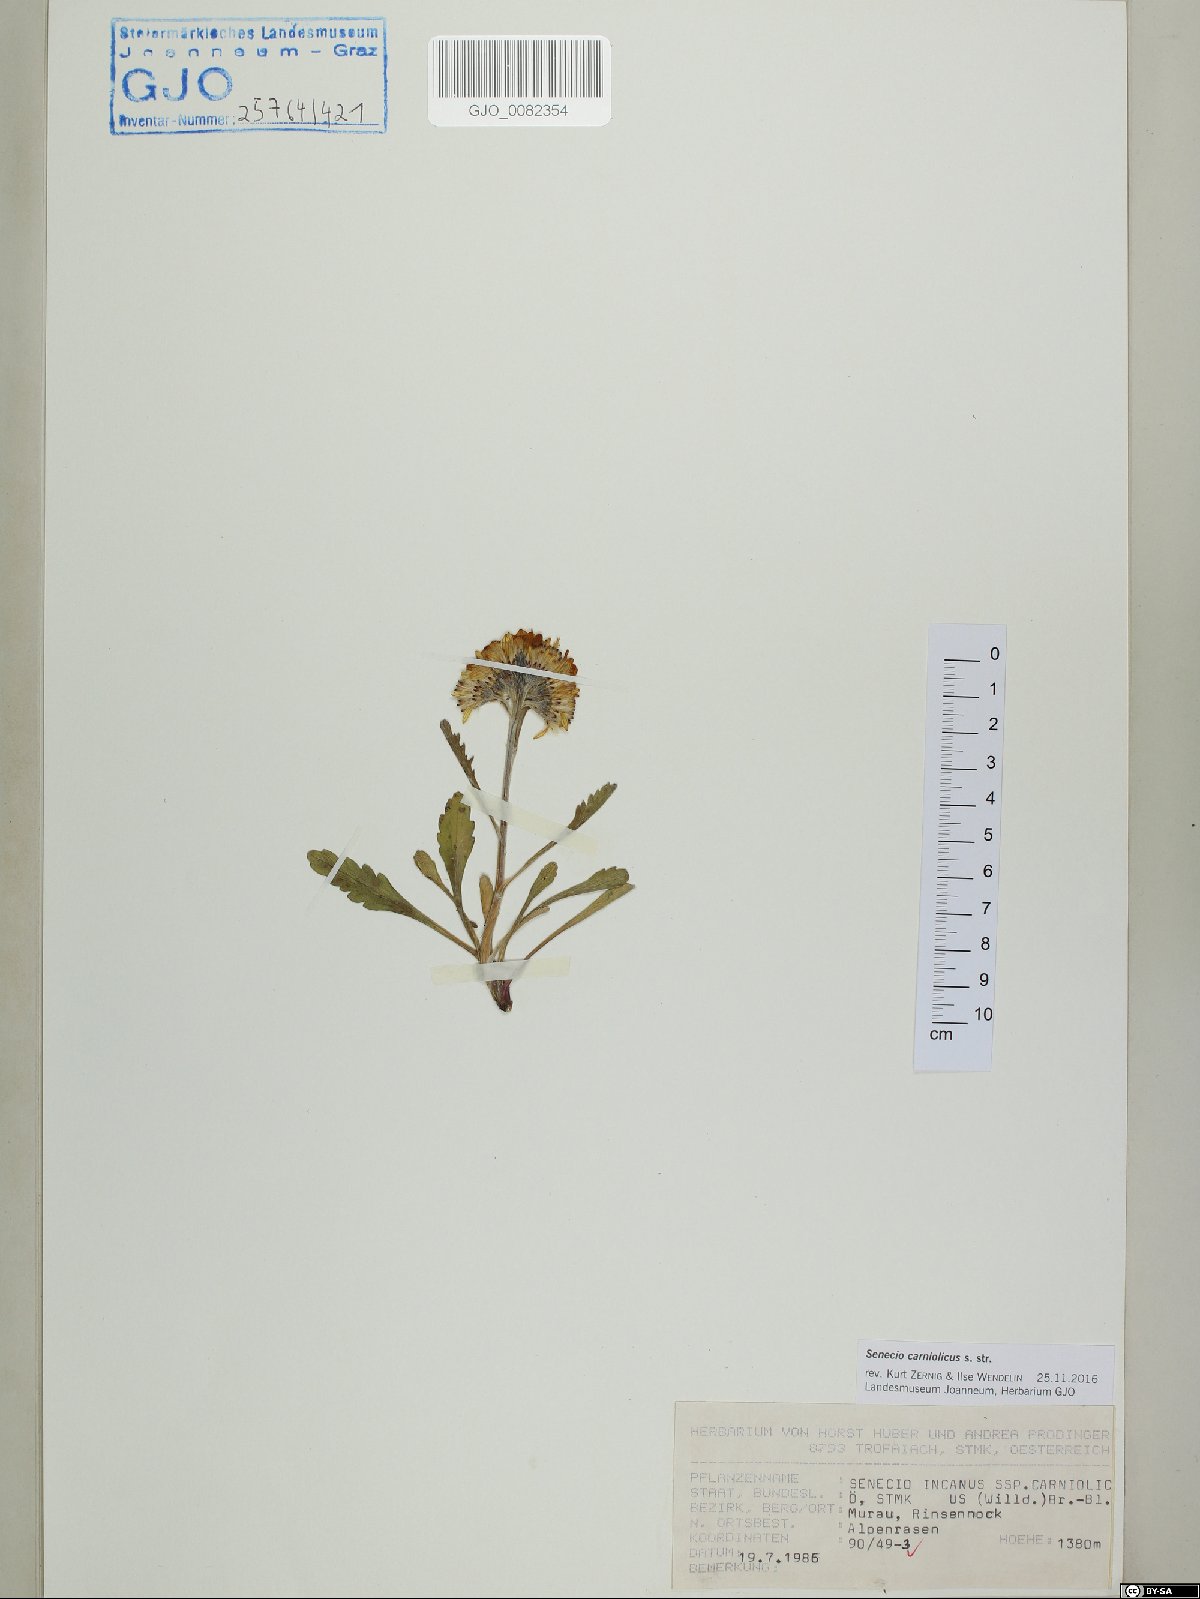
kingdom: Plantae
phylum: Tracheophyta
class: Magnoliopsida
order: Asterales
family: Asteraceae
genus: Jacobaea
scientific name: Jacobaea carniolica
